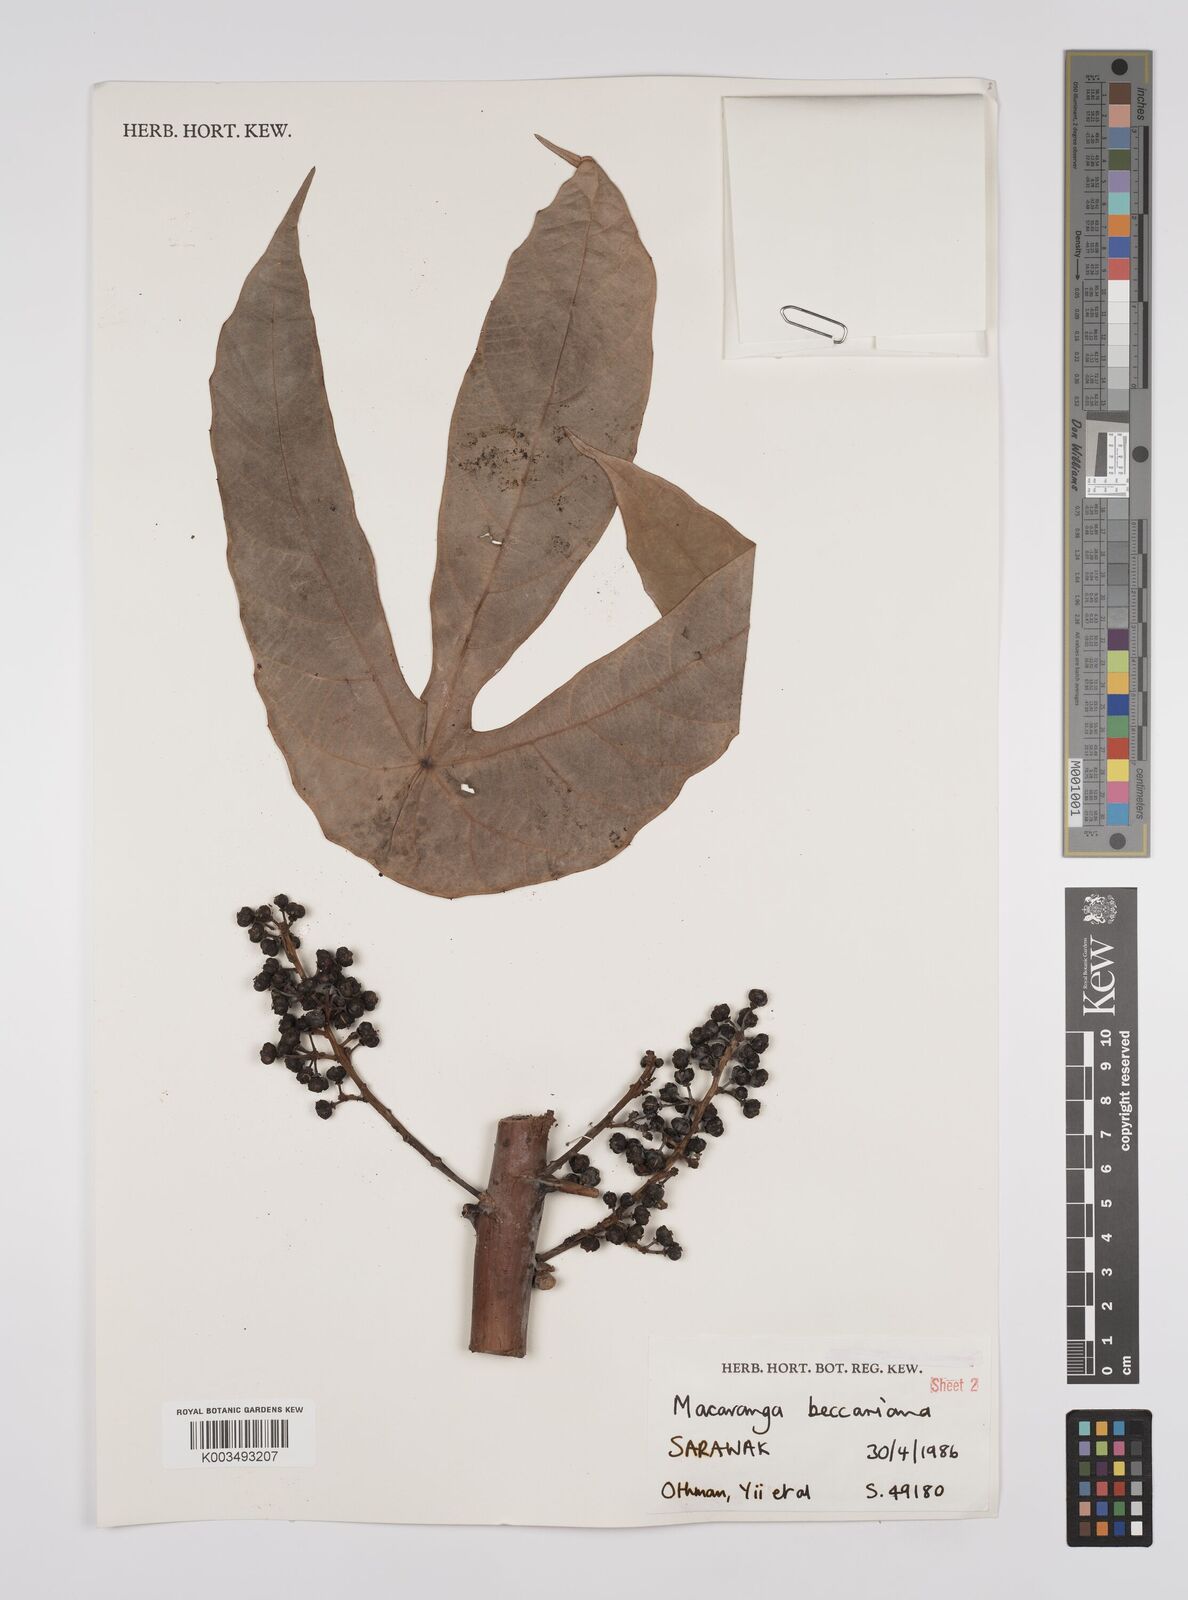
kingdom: Plantae
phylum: Tracheophyta
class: Magnoliopsida
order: Malpighiales
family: Euphorbiaceae
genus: Macaranga
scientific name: Macaranga beccariana
